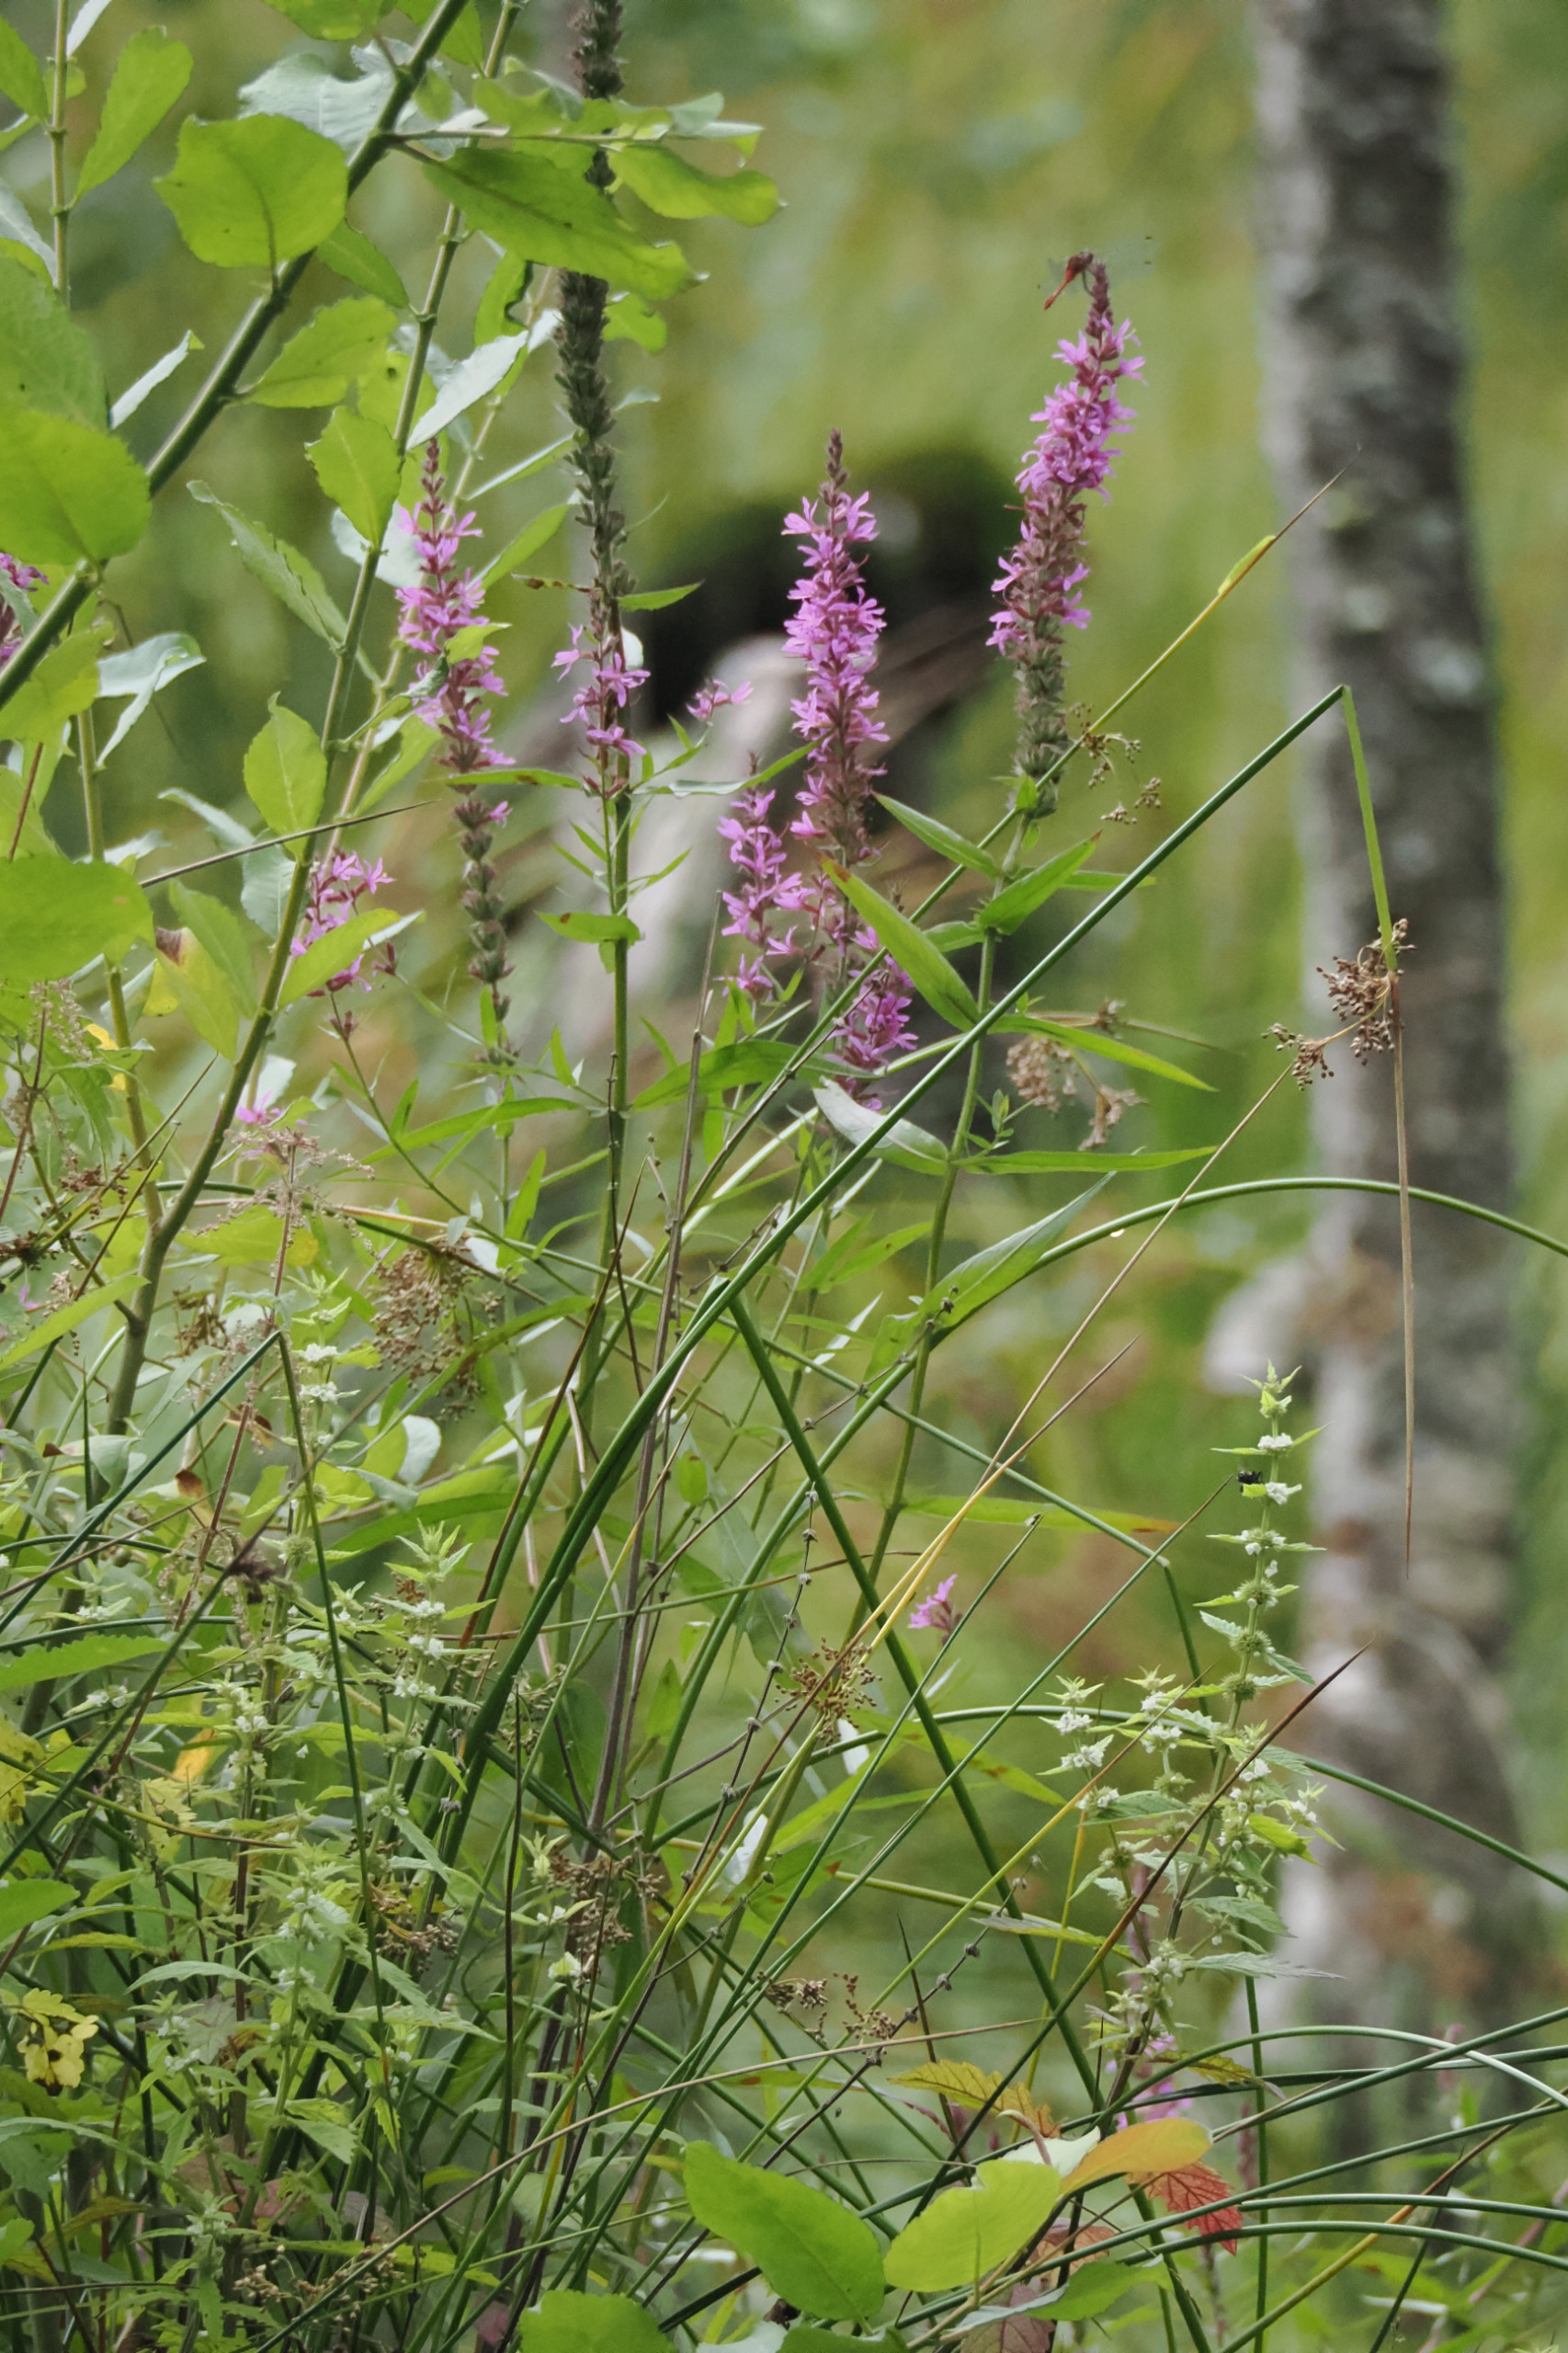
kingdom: Plantae
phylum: Tracheophyta
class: Magnoliopsida
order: Myrtales
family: Lythraceae
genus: Lythrum
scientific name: Lythrum salicaria
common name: Kattehale
